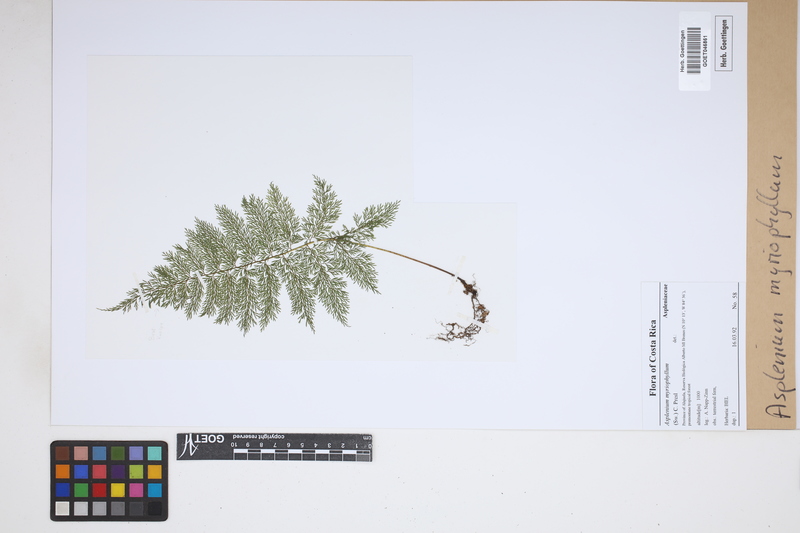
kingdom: Plantae
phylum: Tracheophyta
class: Polypodiopsida
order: Polypodiales
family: Aspleniaceae
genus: Asplenium
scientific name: Asplenium myriophyllum
